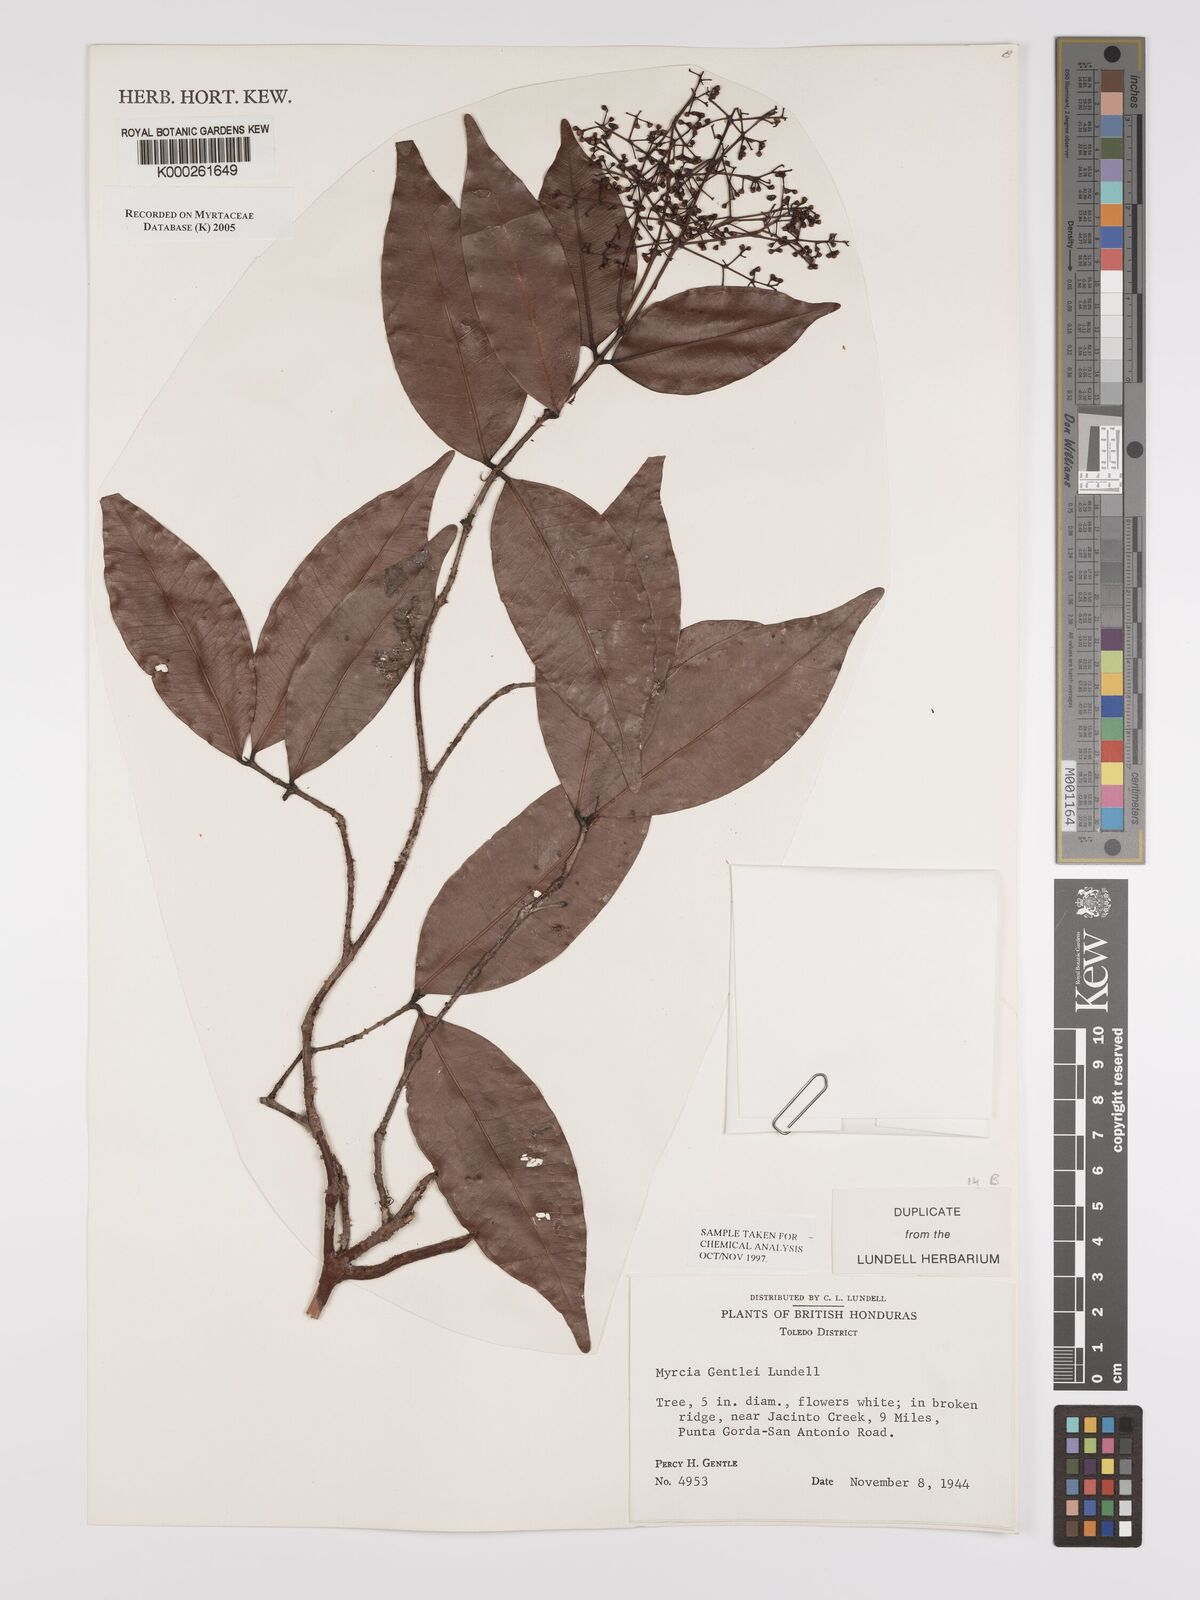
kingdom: Plantae
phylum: Tracheophyta
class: Magnoliopsida
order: Myrtales
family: Myrtaceae
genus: Myrcia
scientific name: Myrcia amazonica
